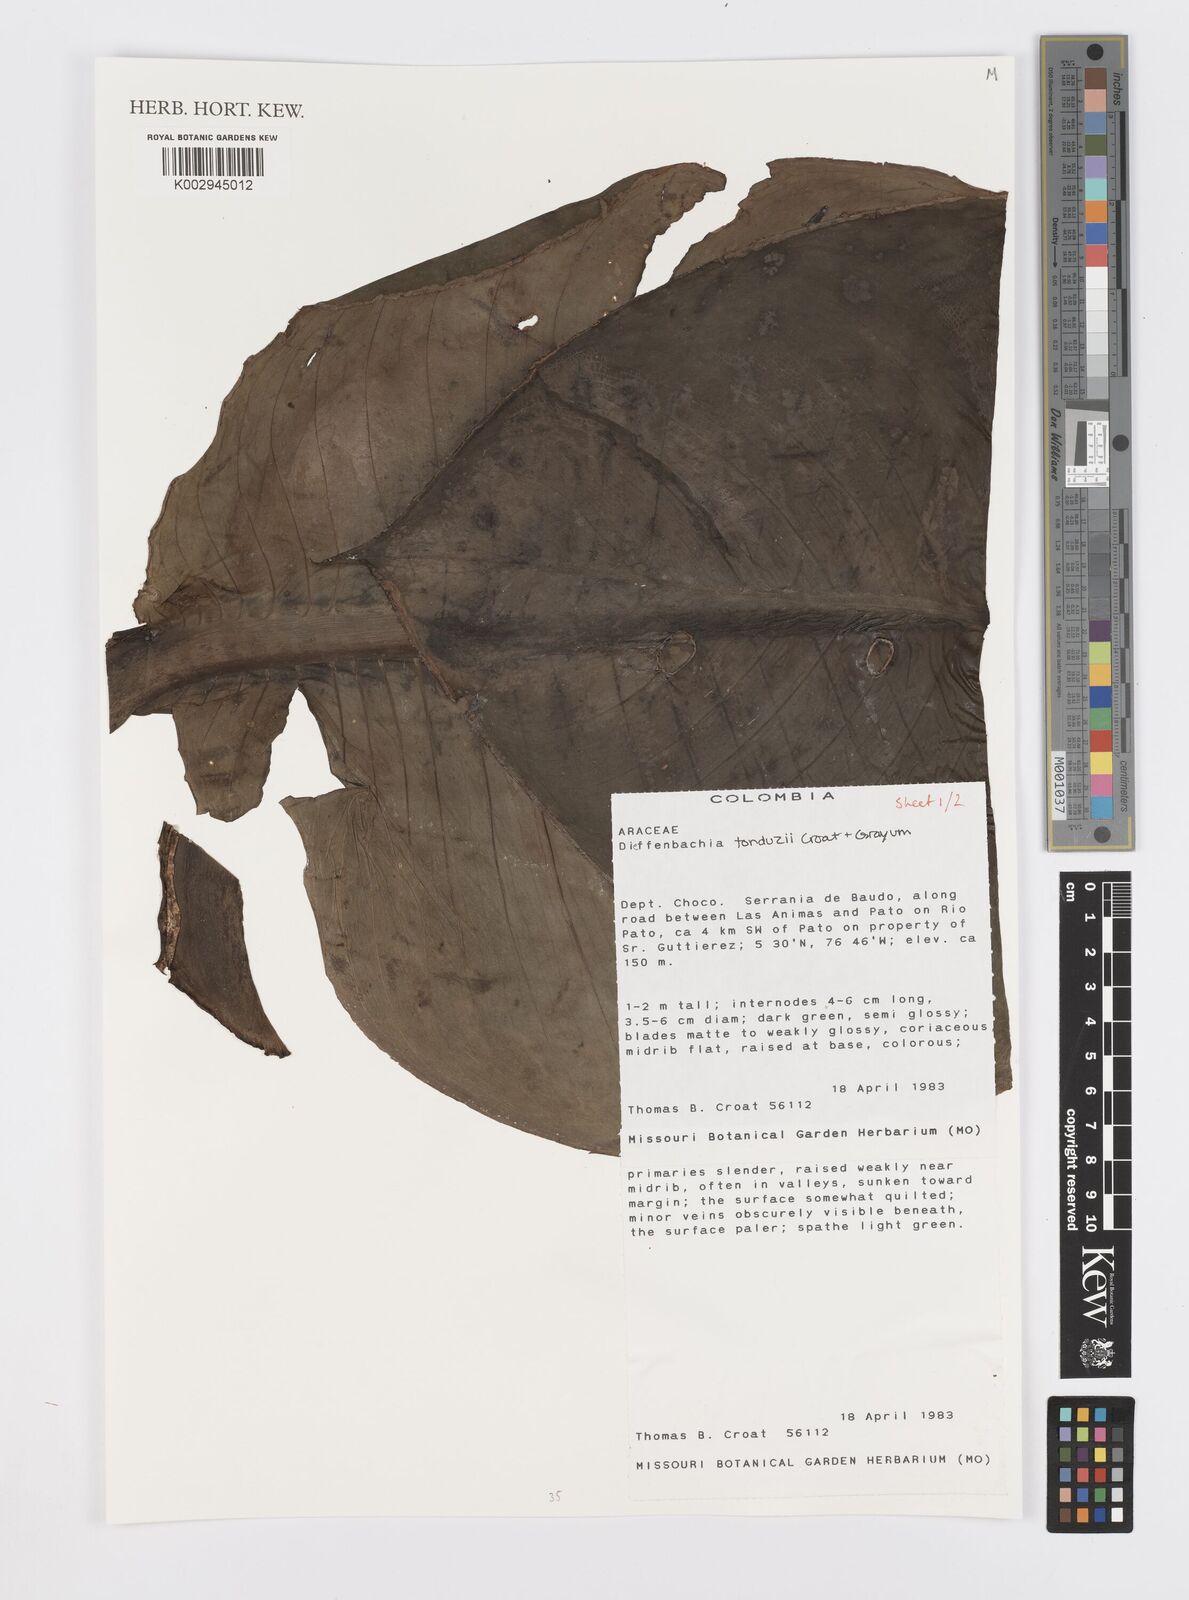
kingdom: Plantae
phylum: Tracheophyta
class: Liliopsida
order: Alismatales
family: Araceae
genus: Dieffenbachia
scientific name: Dieffenbachia tonduzii
